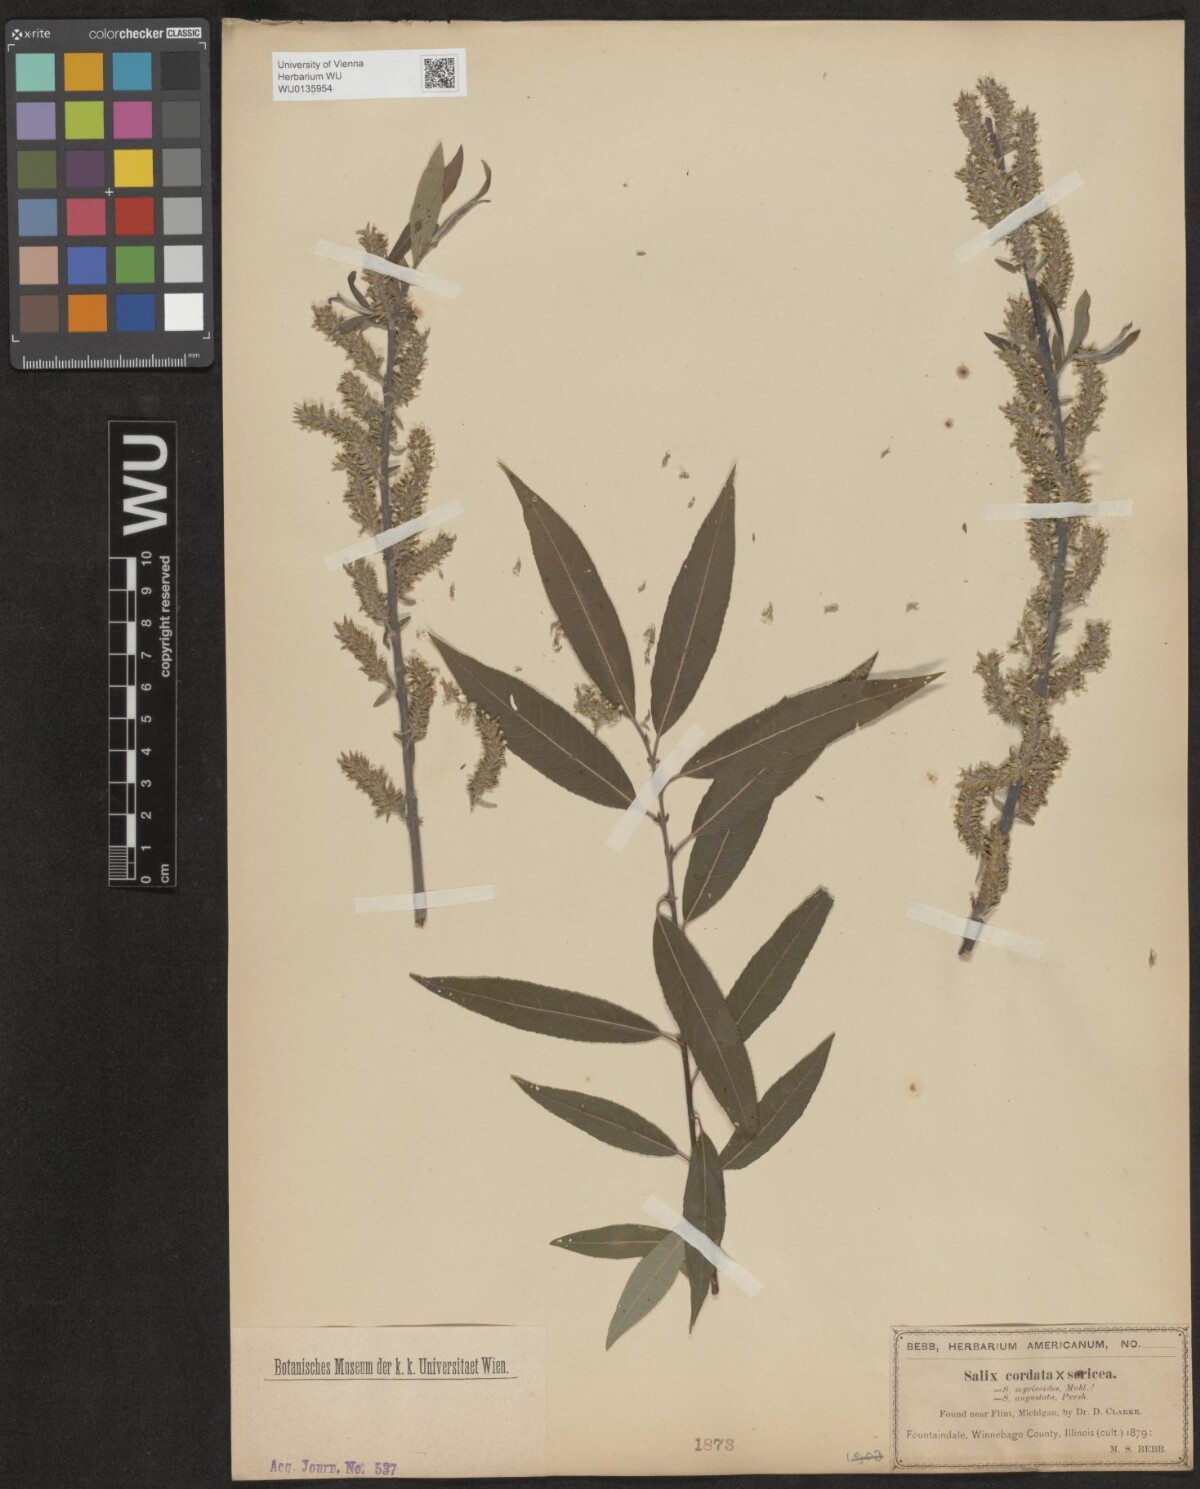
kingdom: Plantae
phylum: Tracheophyta
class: Magnoliopsida
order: Malpighiales
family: Salicaceae
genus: Salix
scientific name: Salix
